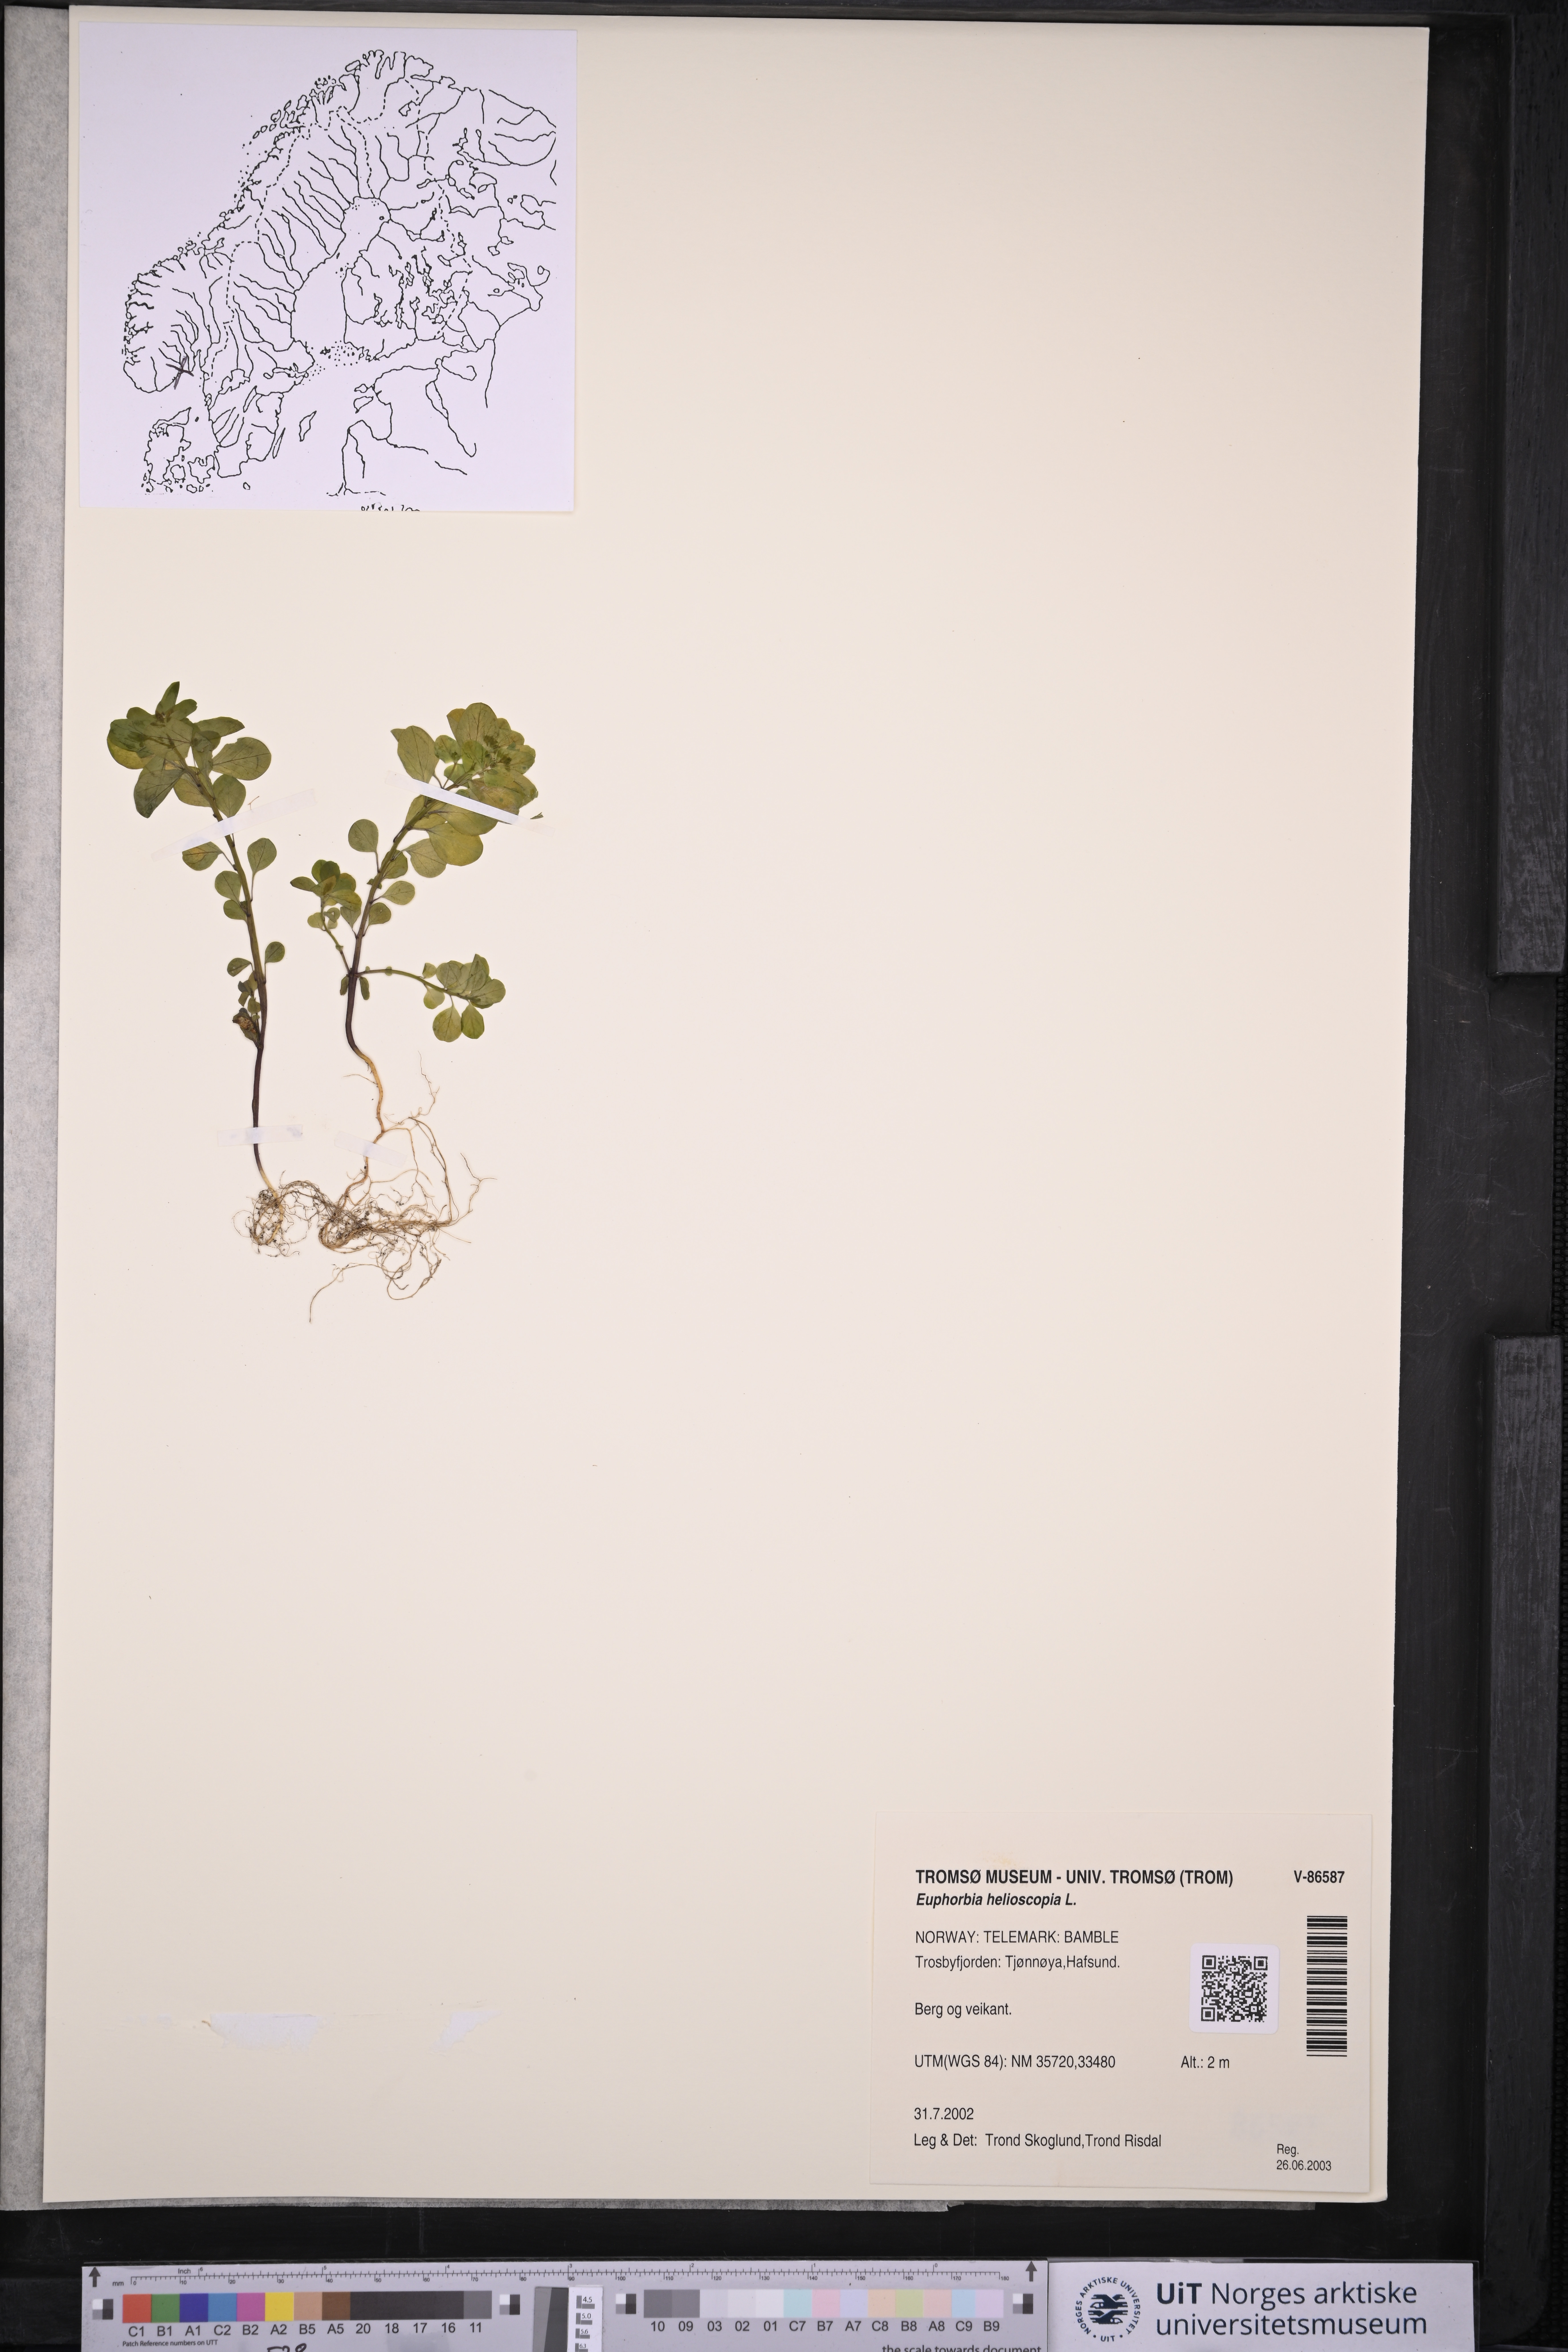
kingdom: Plantae
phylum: Tracheophyta
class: Magnoliopsida
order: Malpighiales
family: Euphorbiaceae
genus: Euphorbia
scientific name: Euphorbia helioscopia
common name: Sun spurge
